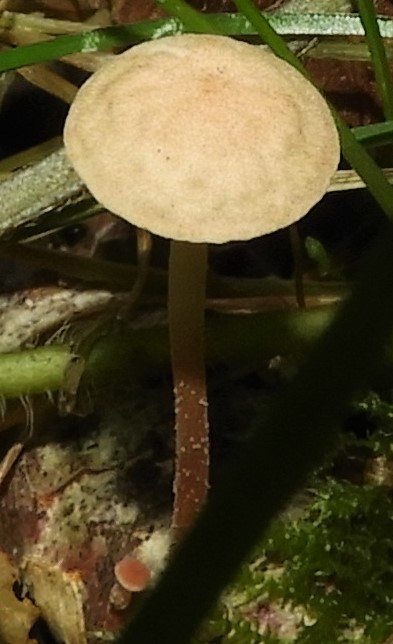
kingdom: Fungi
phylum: Basidiomycota
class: Agaricomycetes
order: Agaricales
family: Omphalotaceae
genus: Marasmiellus
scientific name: Marasmiellus
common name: bruskhat
